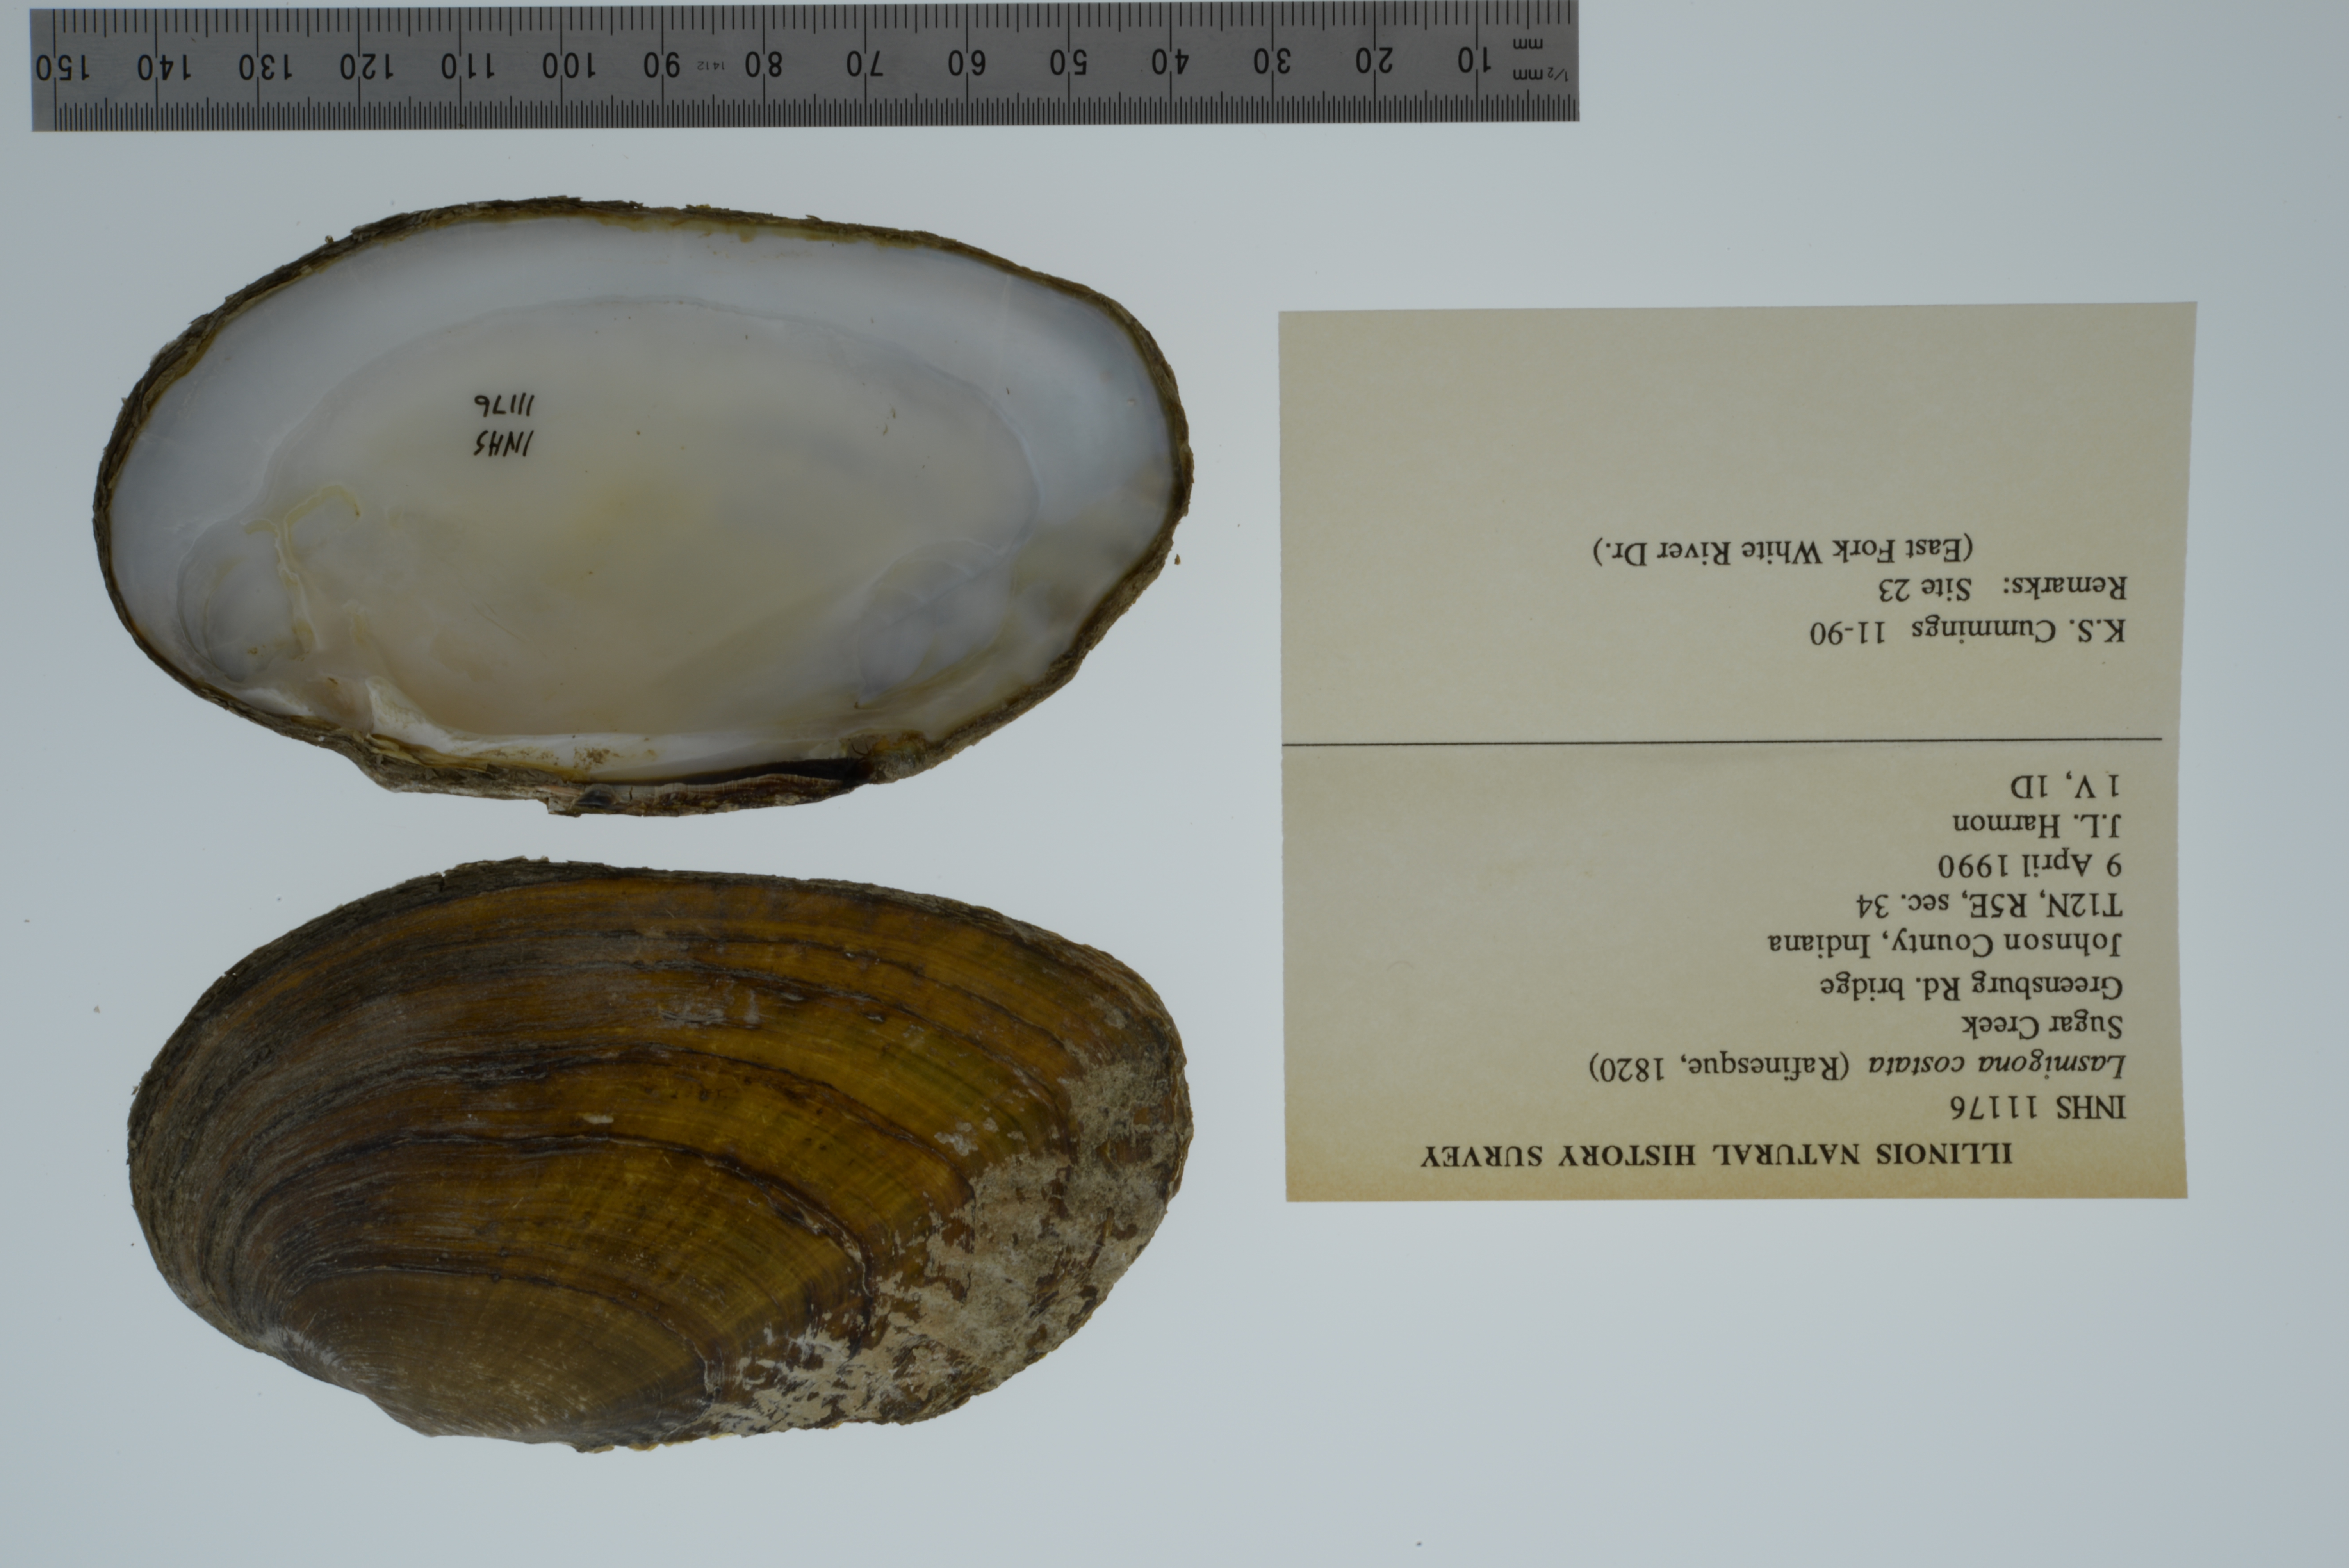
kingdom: Animalia
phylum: Mollusca
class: Bivalvia
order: Unionida
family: Unionidae
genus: Lasmigona
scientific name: Lasmigona costata
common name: Flutedshell
